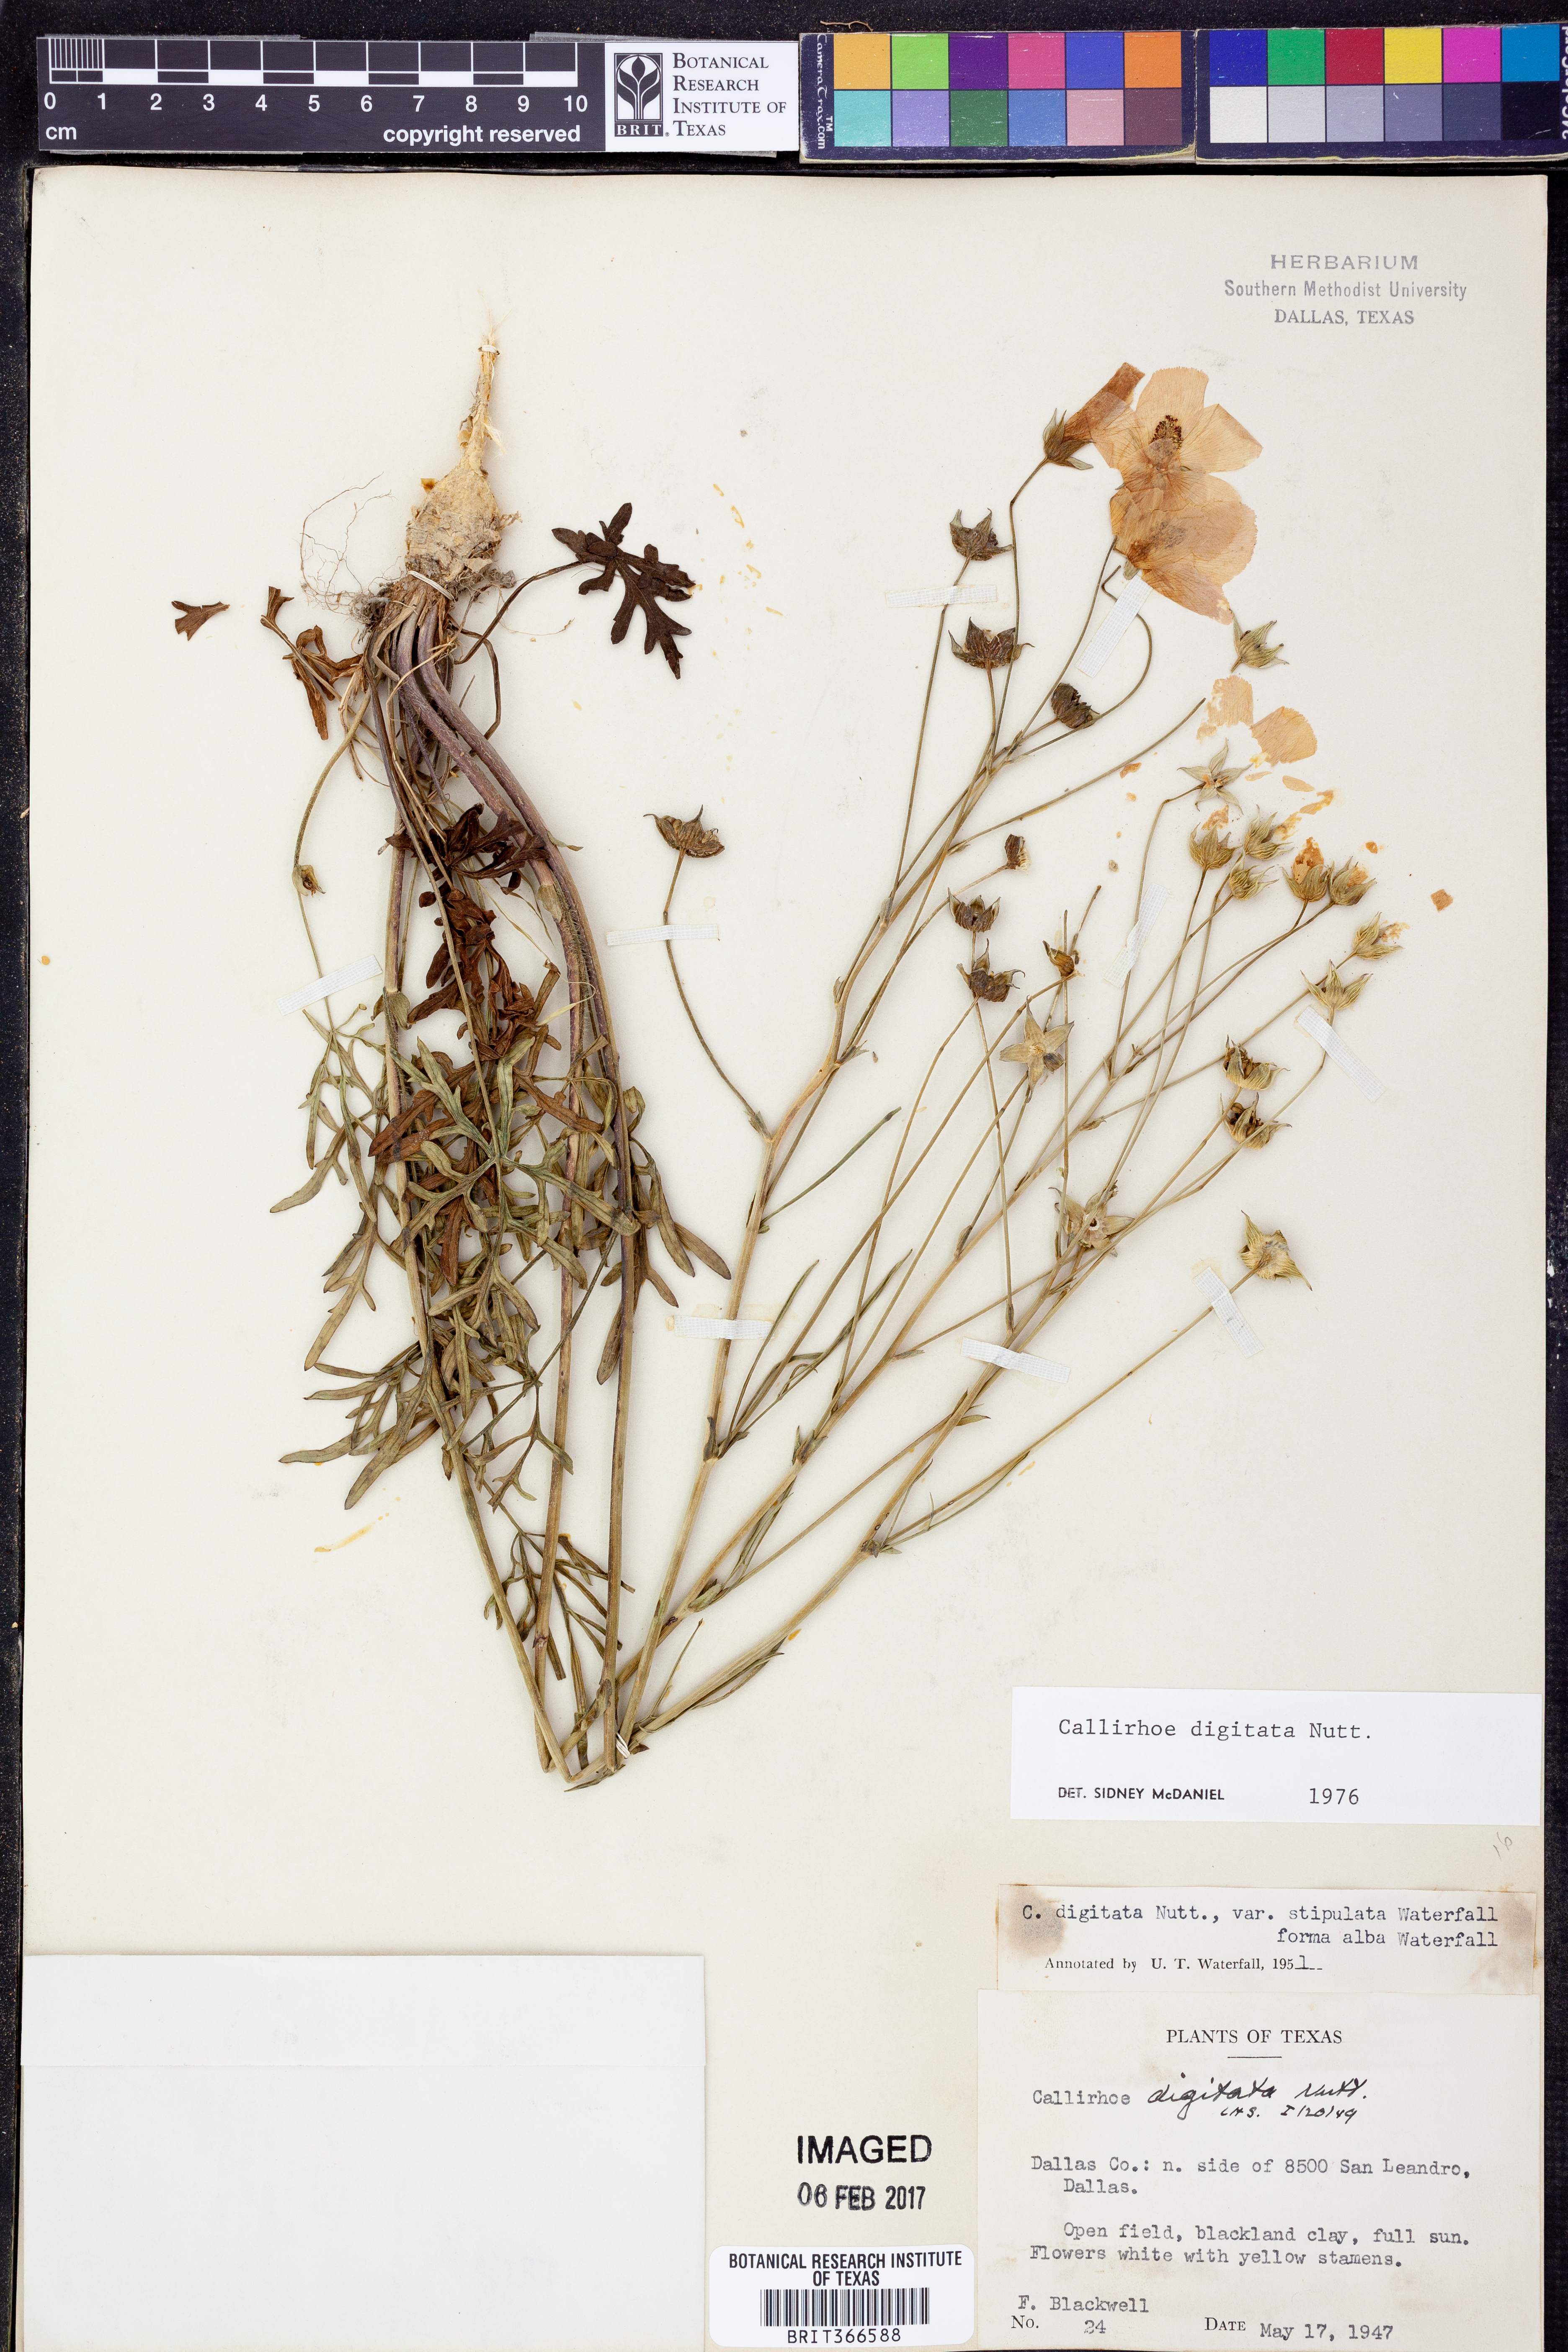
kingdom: Plantae
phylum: Tracheophyta
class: Magnoliopsida
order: Malvales
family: Malvaceae
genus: Callirhoe
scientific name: Callirhoe digitata
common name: Finger poppy-mallow
